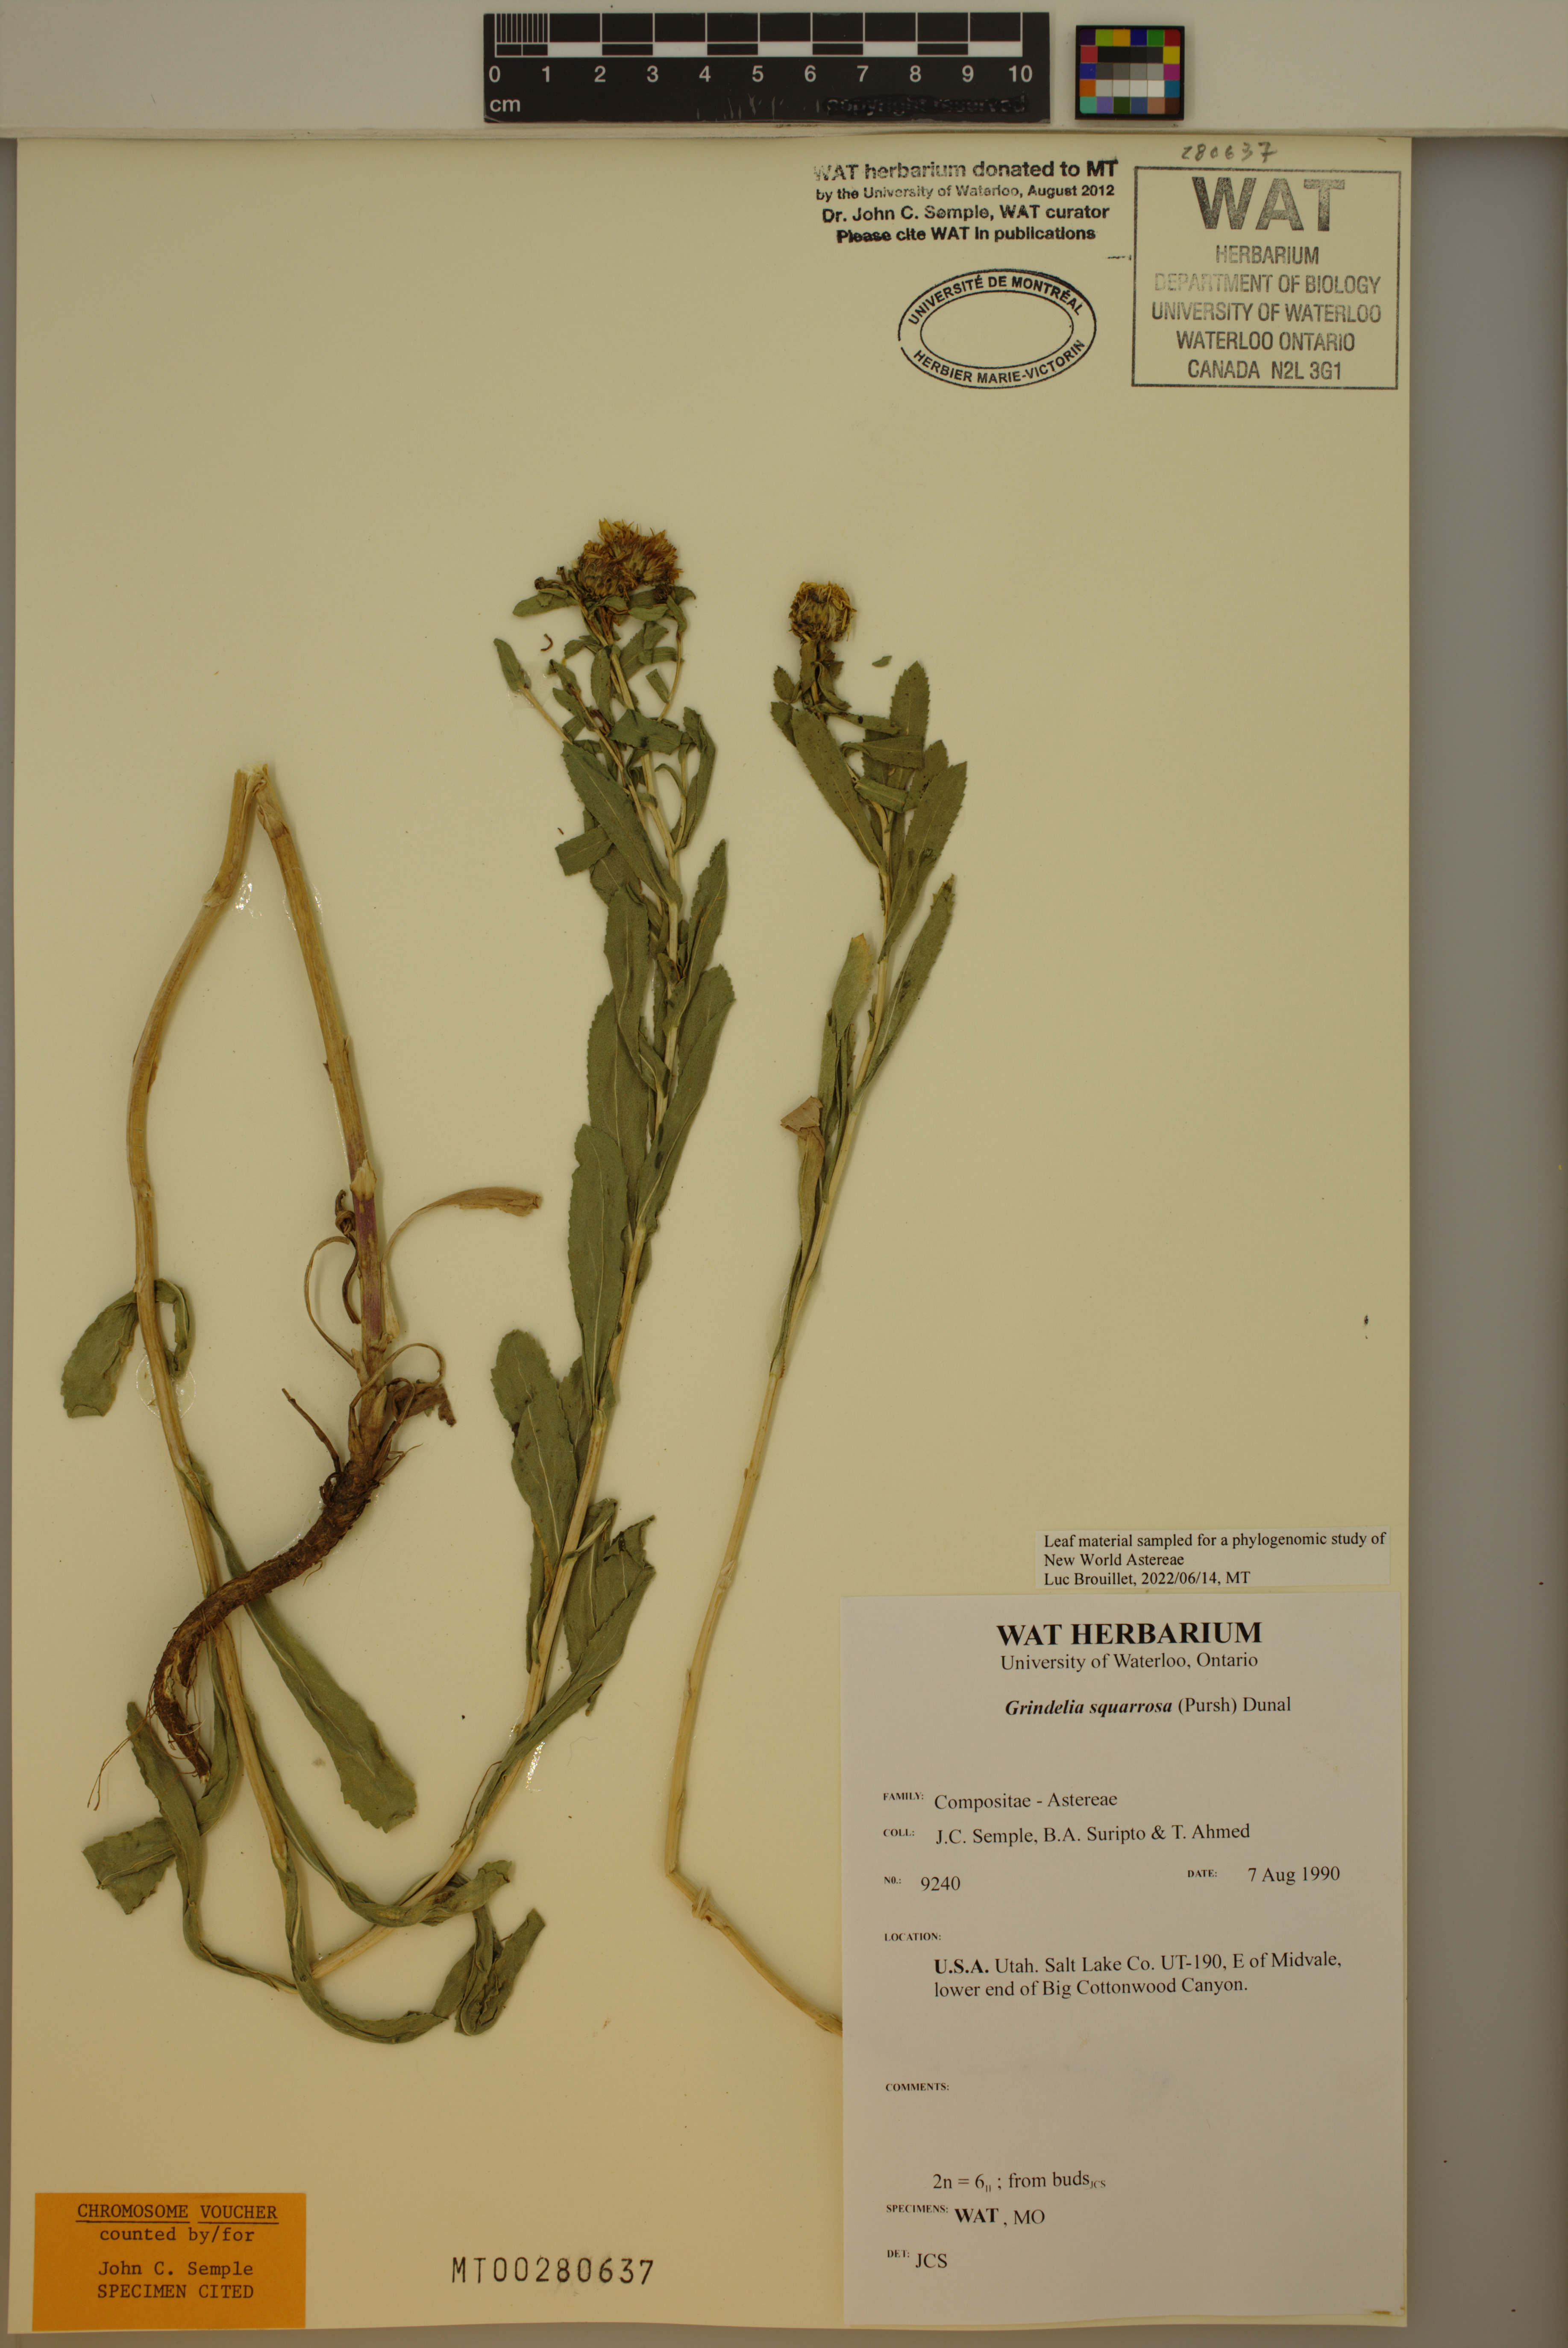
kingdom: Plantae
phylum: Tracheophyta
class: Magnoliopsida
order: Asterales
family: Asteraceae
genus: Grindelia
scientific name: Grindelia squarrosa
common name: Curly-cup gumweed
